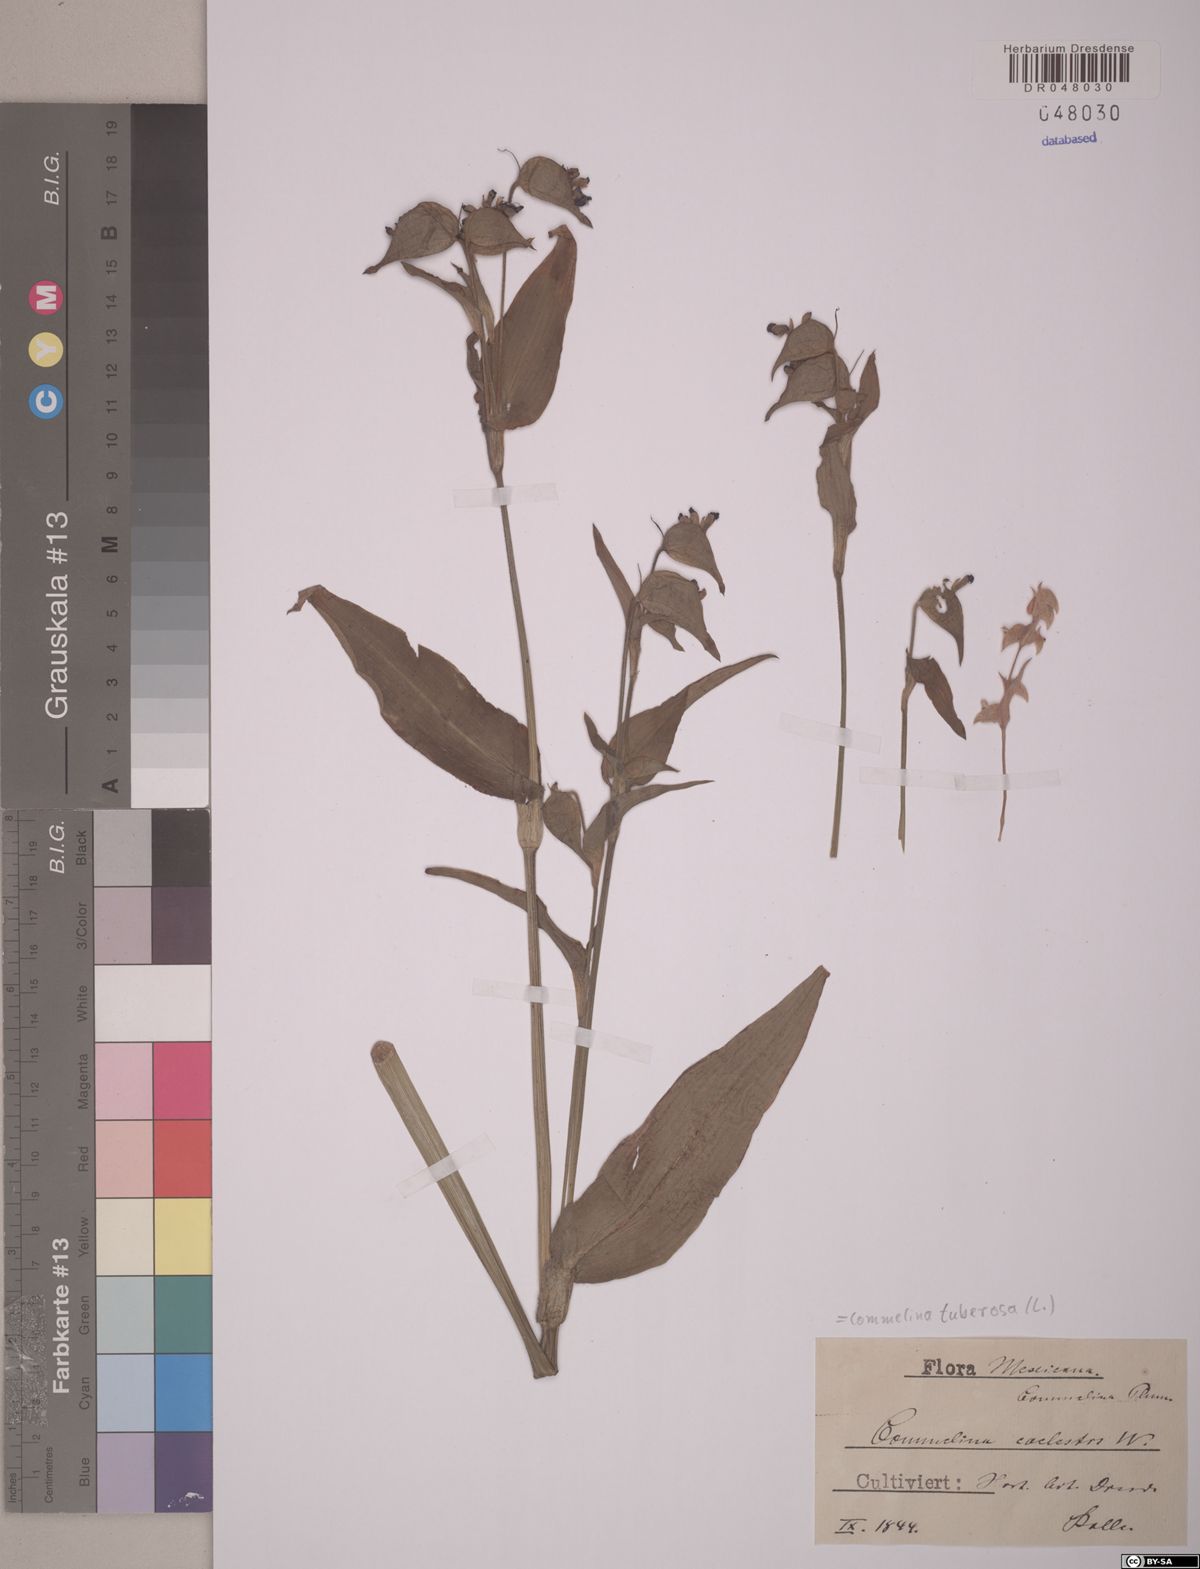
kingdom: Plantae
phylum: Tracheophyta
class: Liliopsida
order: Commelinales
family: Commelinaceae
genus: Commelina
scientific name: Commelina tuberosa
